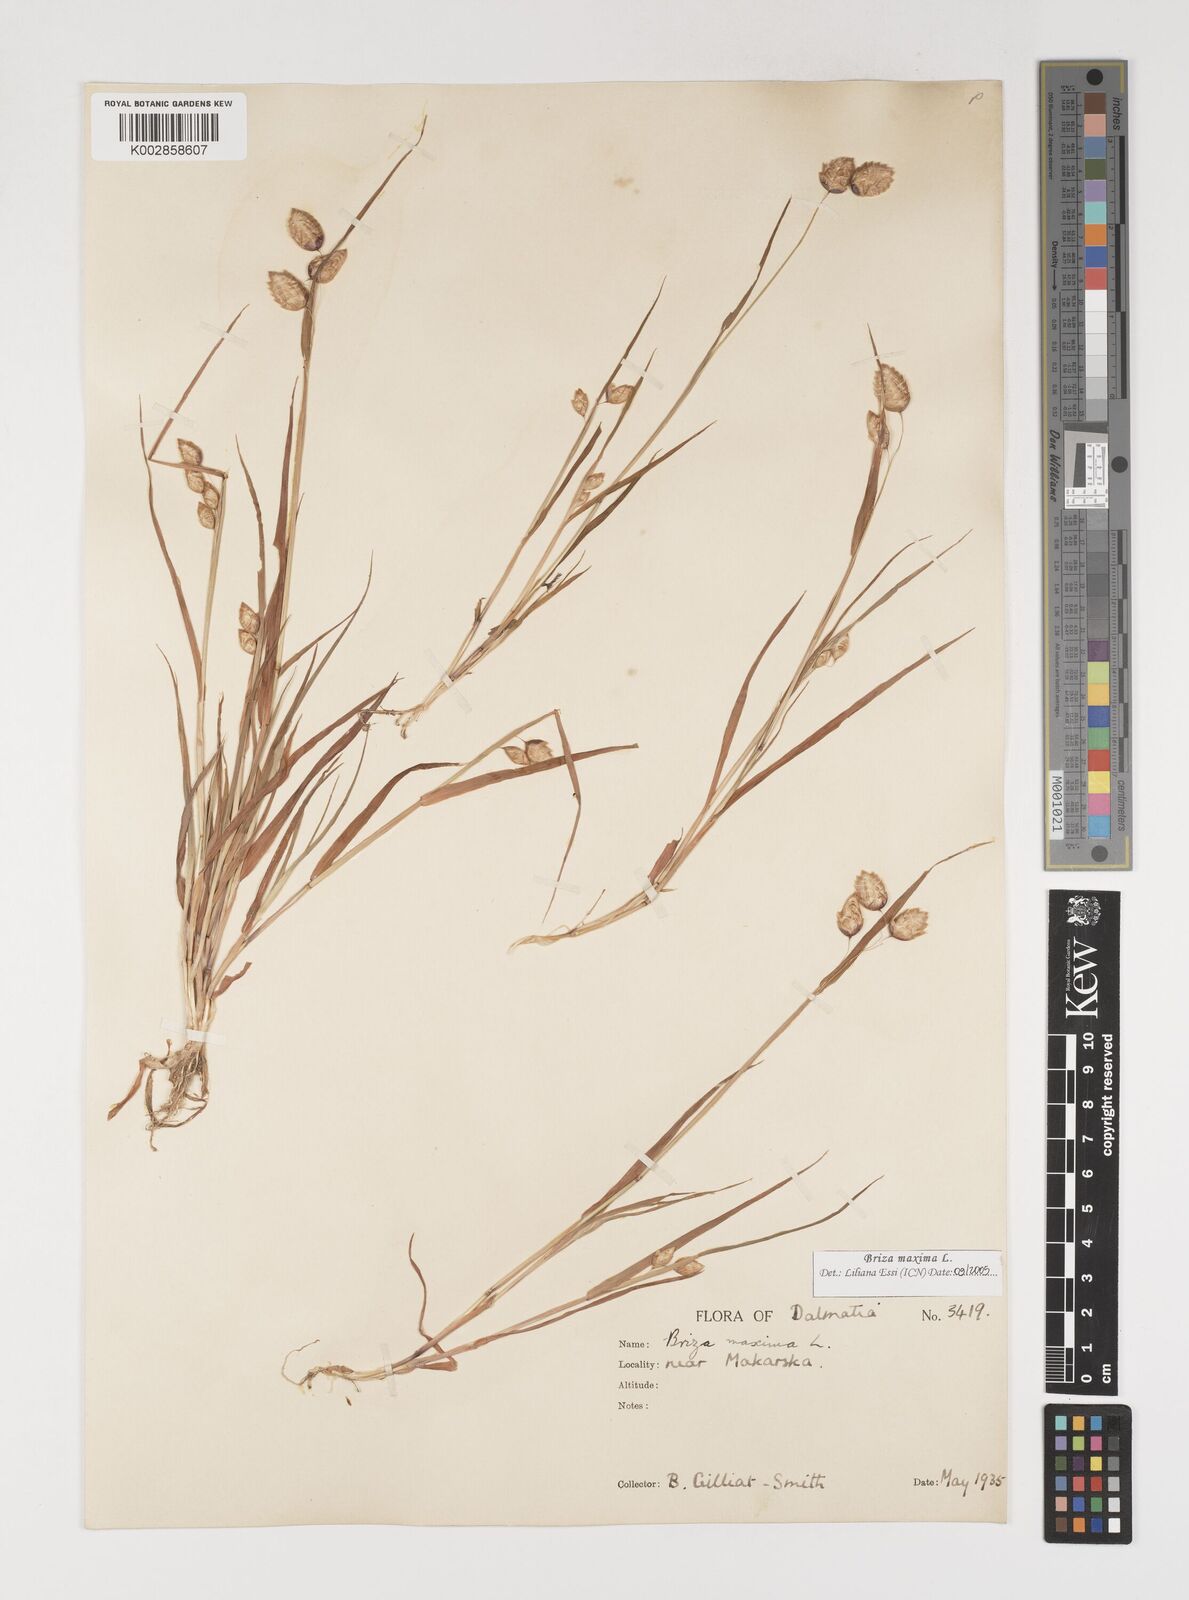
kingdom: Plantae
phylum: Tracheophyta
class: Liliopsida
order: Poales
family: Poaceae
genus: Briza
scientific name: Briza maxima
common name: Big quakinggrass
